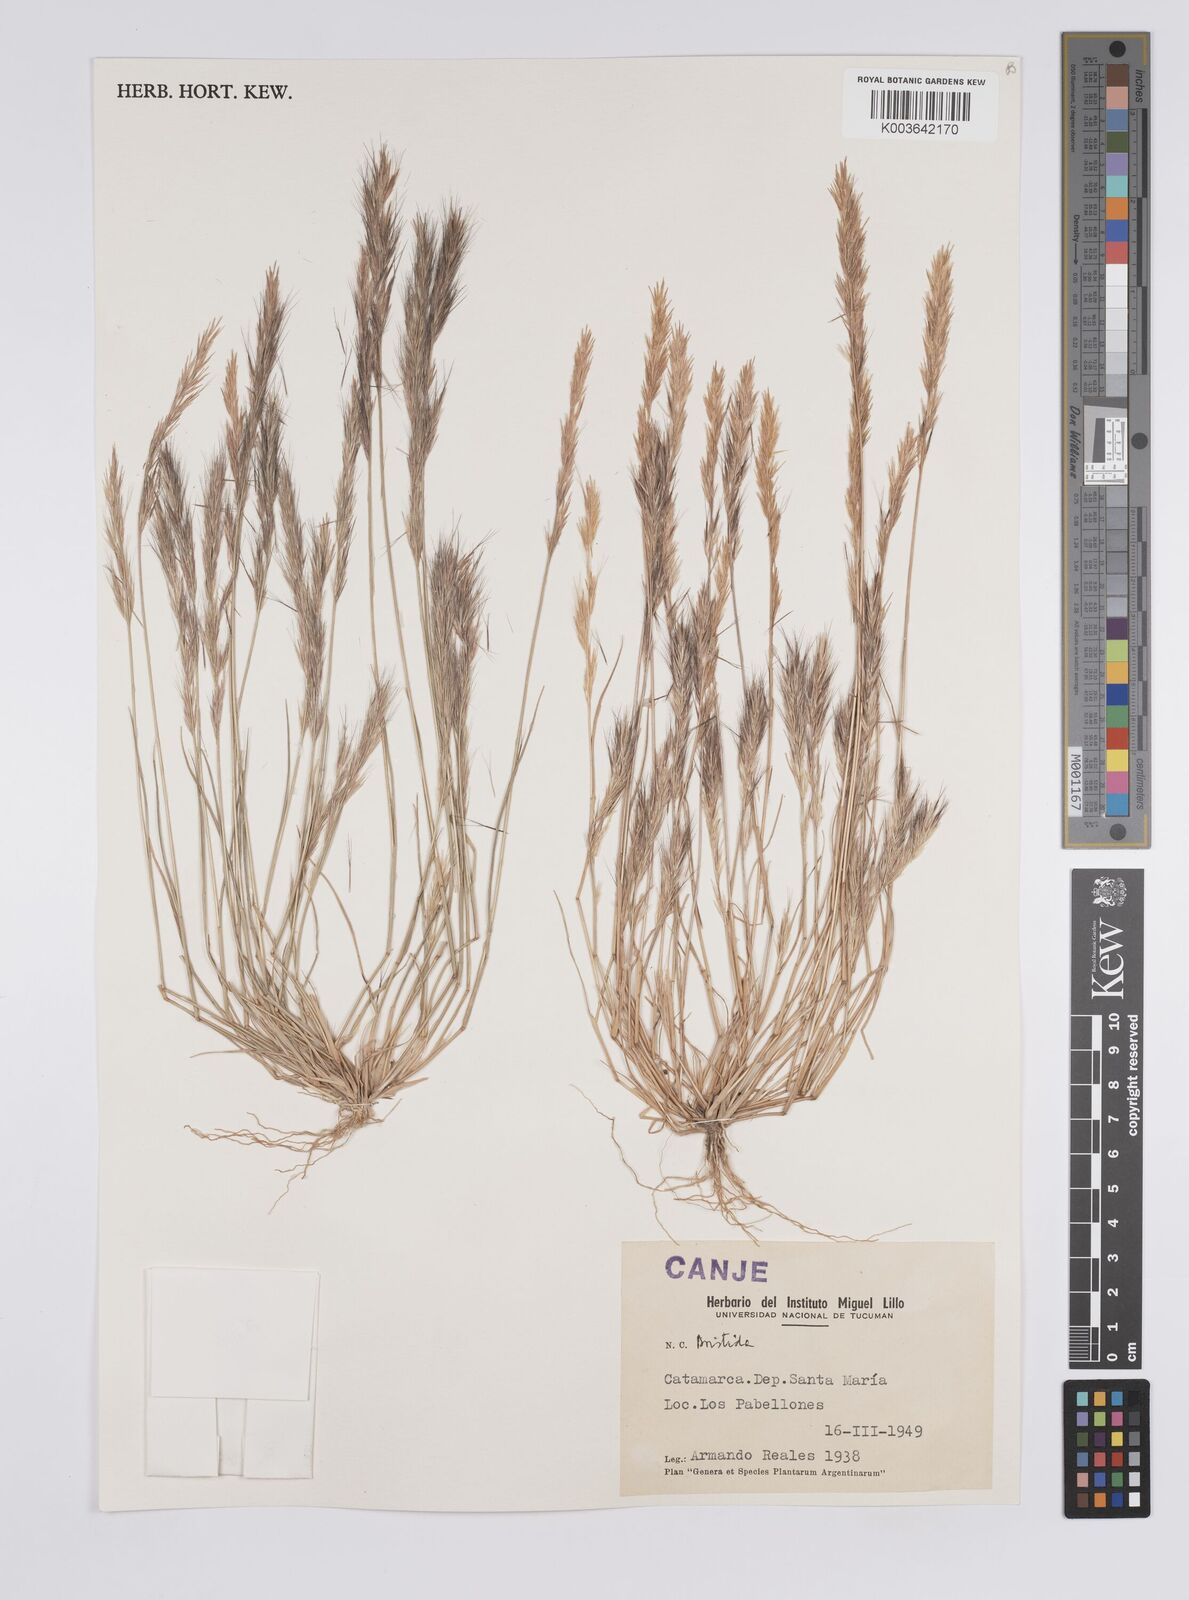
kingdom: Plantae
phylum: Tracheophyta
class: Liliopsida
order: Poales
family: Poaceae
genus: Aristida
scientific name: Aristida
